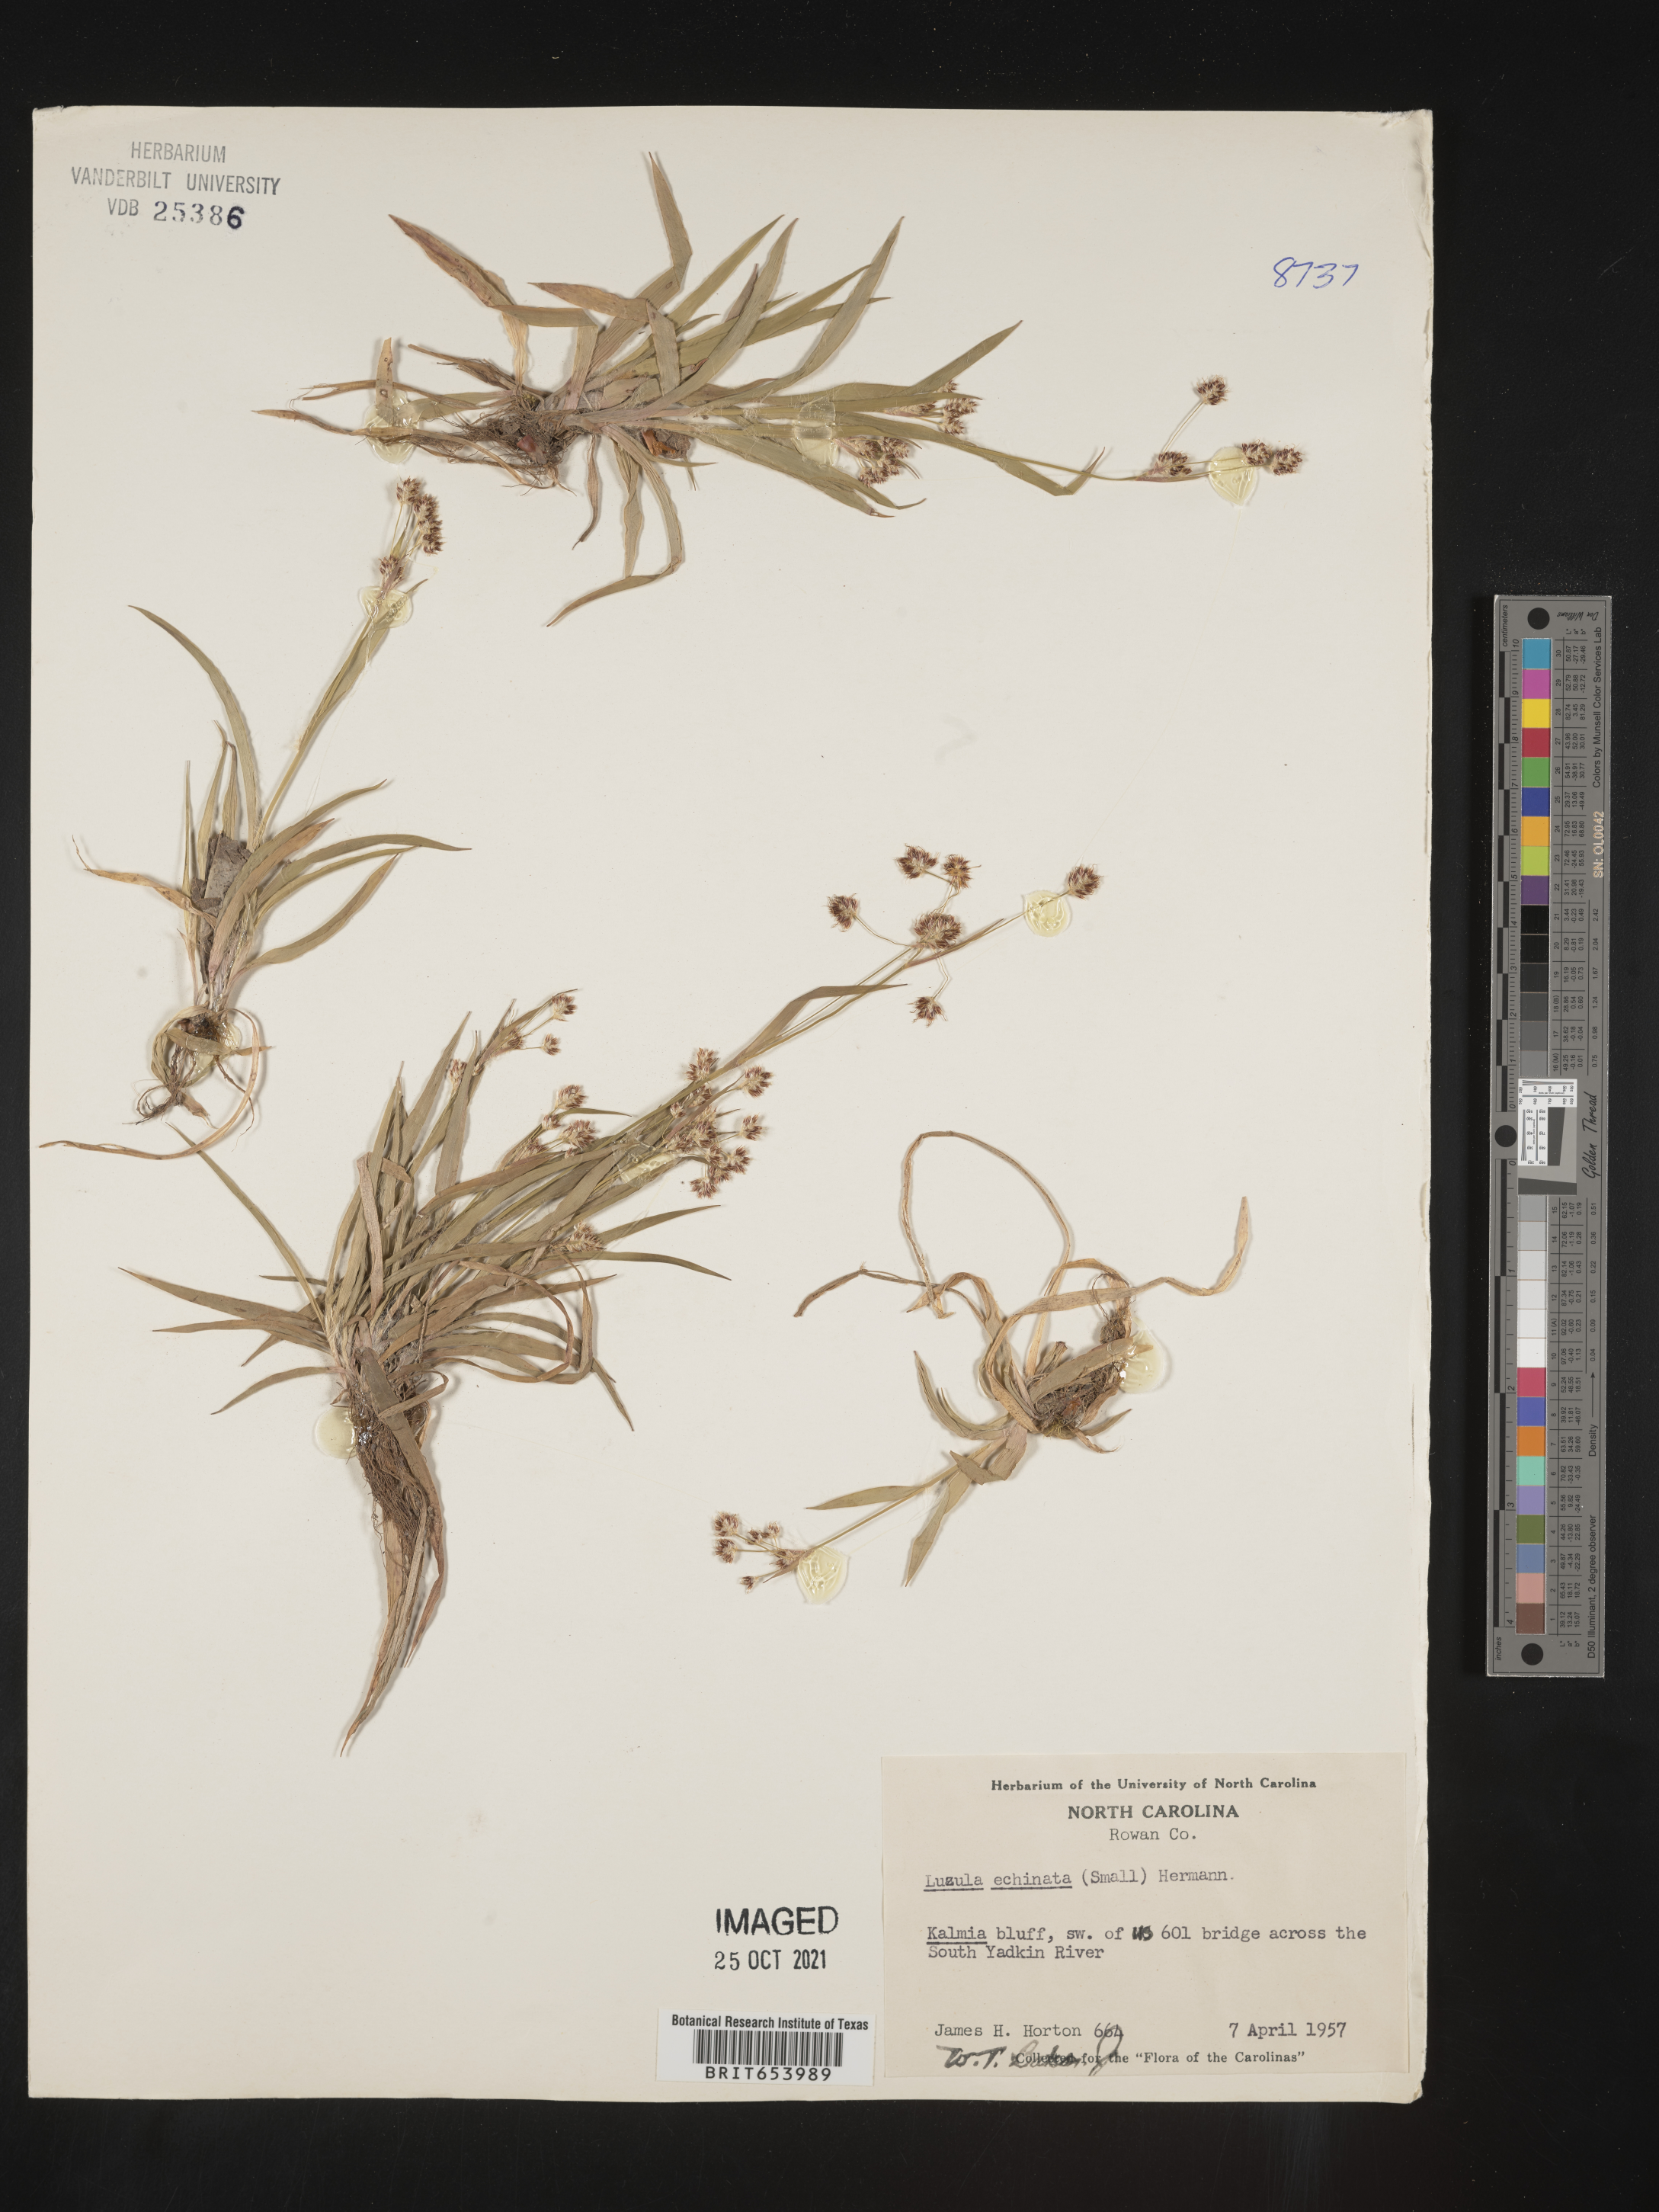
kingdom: Plantae
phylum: Tracheophyta
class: Liliopsida
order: Poales
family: Juncaceae
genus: Luzula
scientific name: Luzula echinata
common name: Hedgehog woodrush
